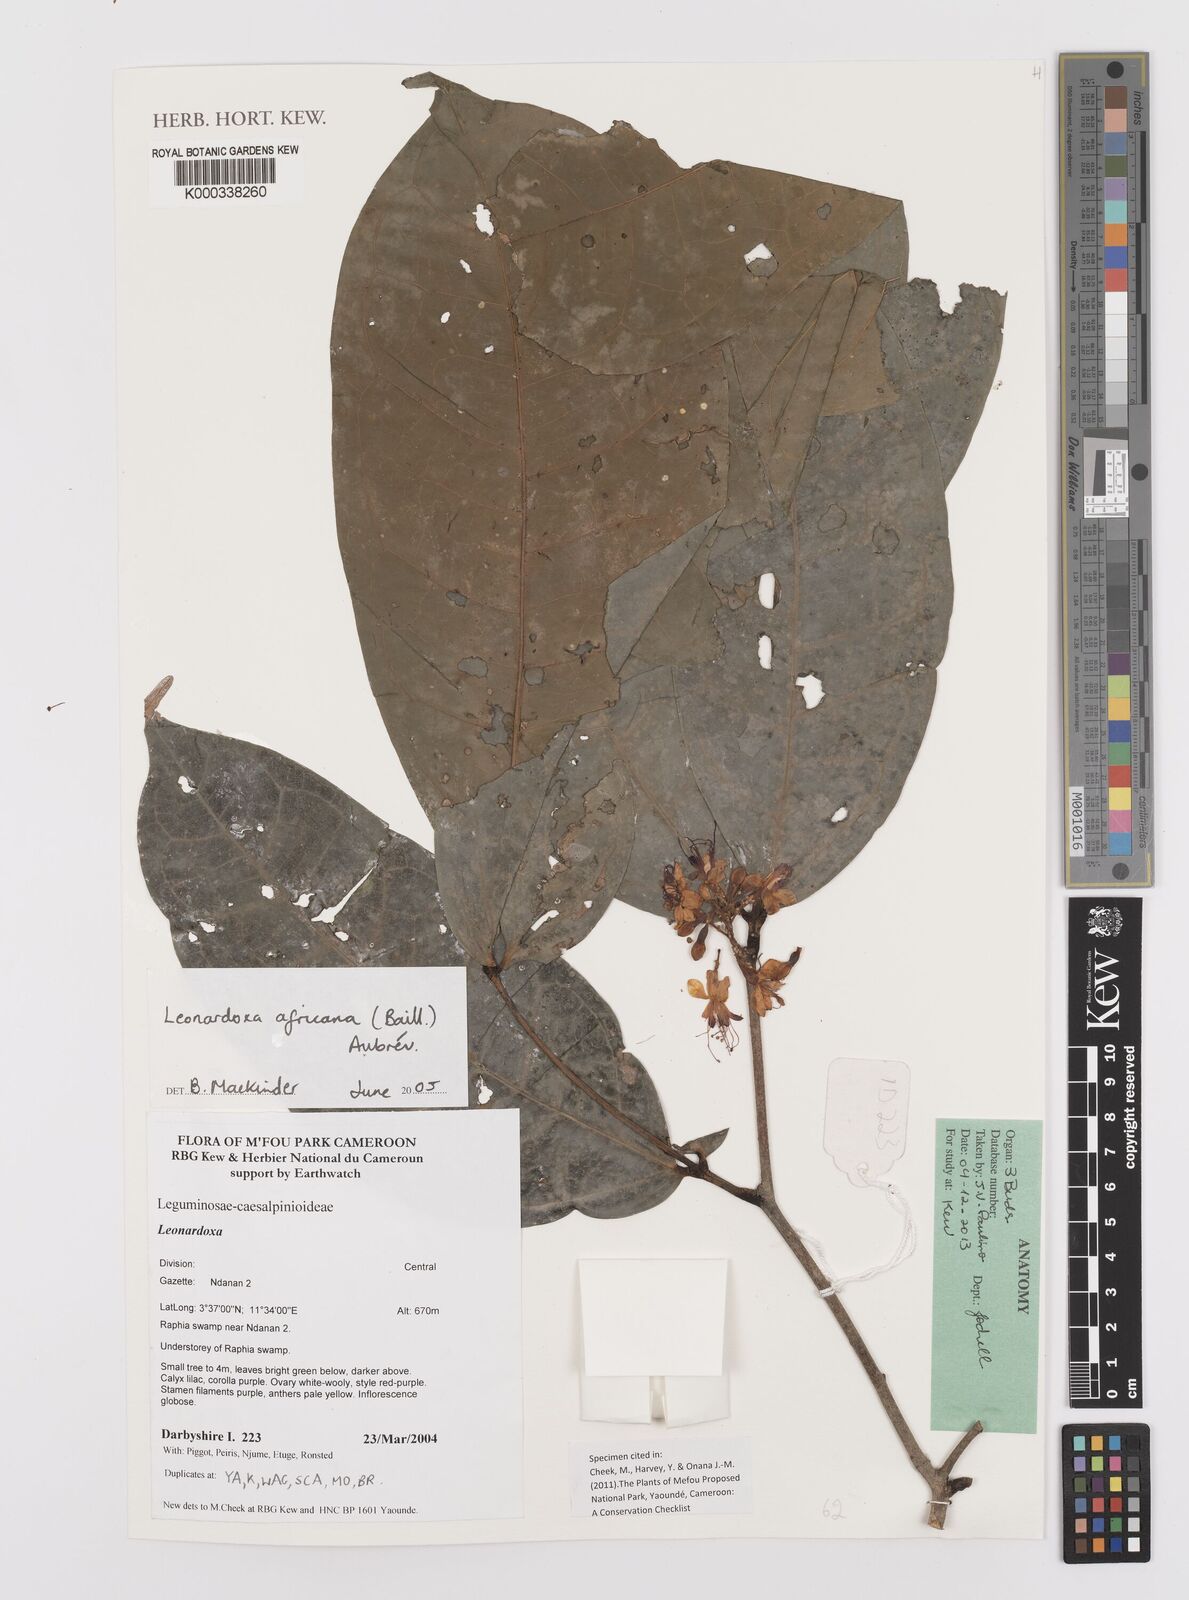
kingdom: Plantae
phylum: Tracheophyta
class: Magnoliopsida
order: Fabales
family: Fabaceae
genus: Leonardoxa
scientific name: Leonardoxa africana
